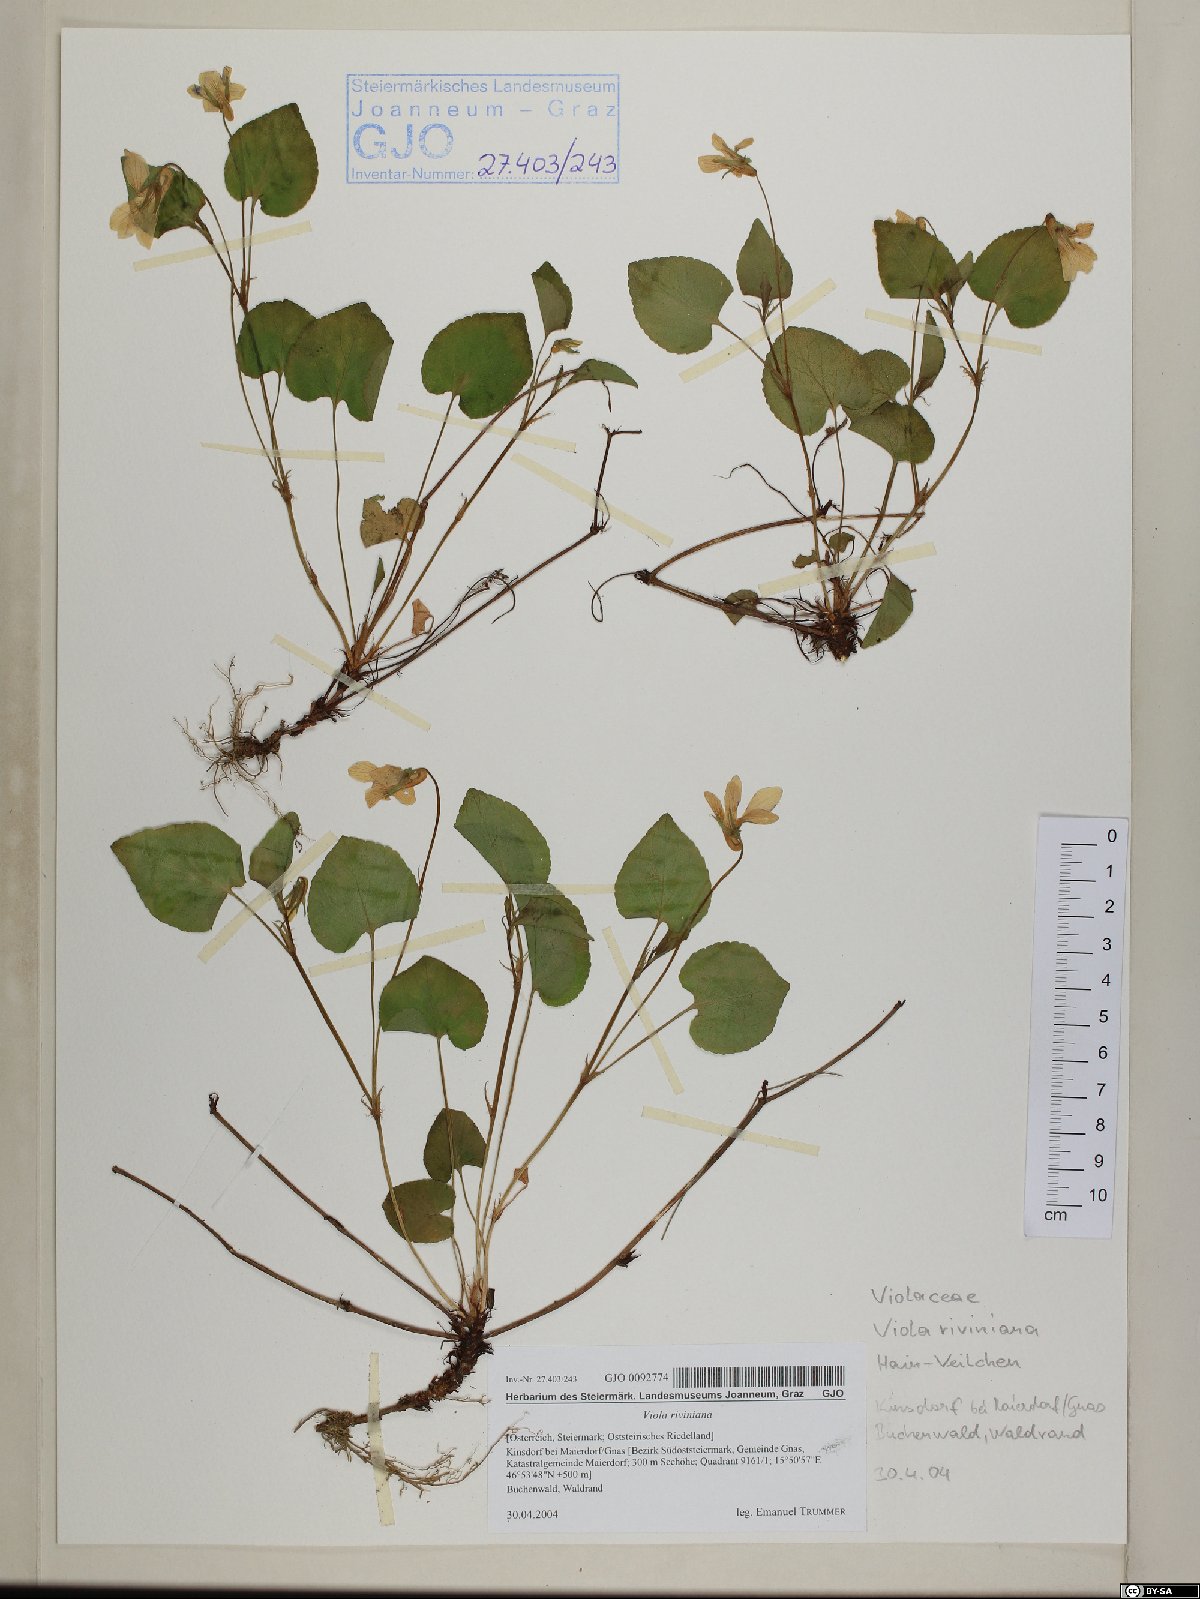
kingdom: Plantae
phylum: Tracheophyta
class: Magnoliopsida
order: Malpighiales
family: Violaceae
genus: Viola
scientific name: Viola riviniana
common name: Common dog-violet
